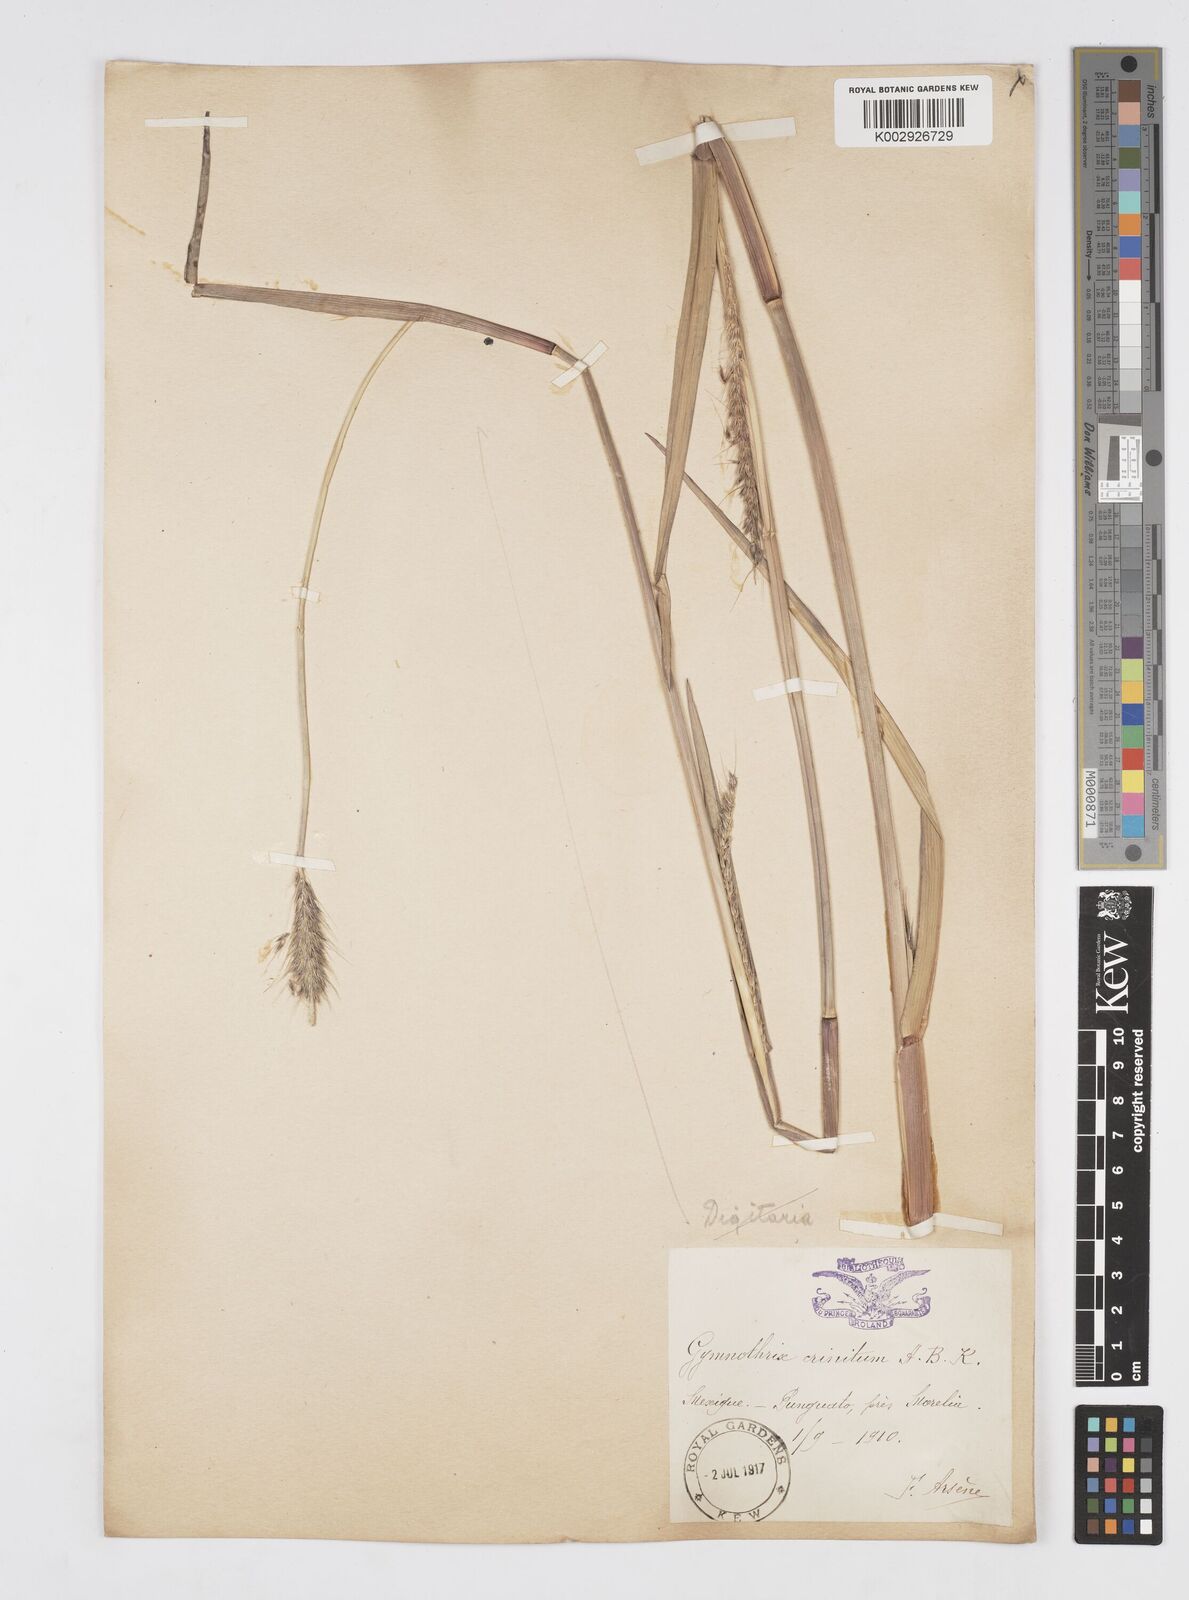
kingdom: Plantae
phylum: Tracheophyta
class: Liliopsida
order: Poales
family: Poaceae
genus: Cenchrus
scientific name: Cenchrus michoacanus
